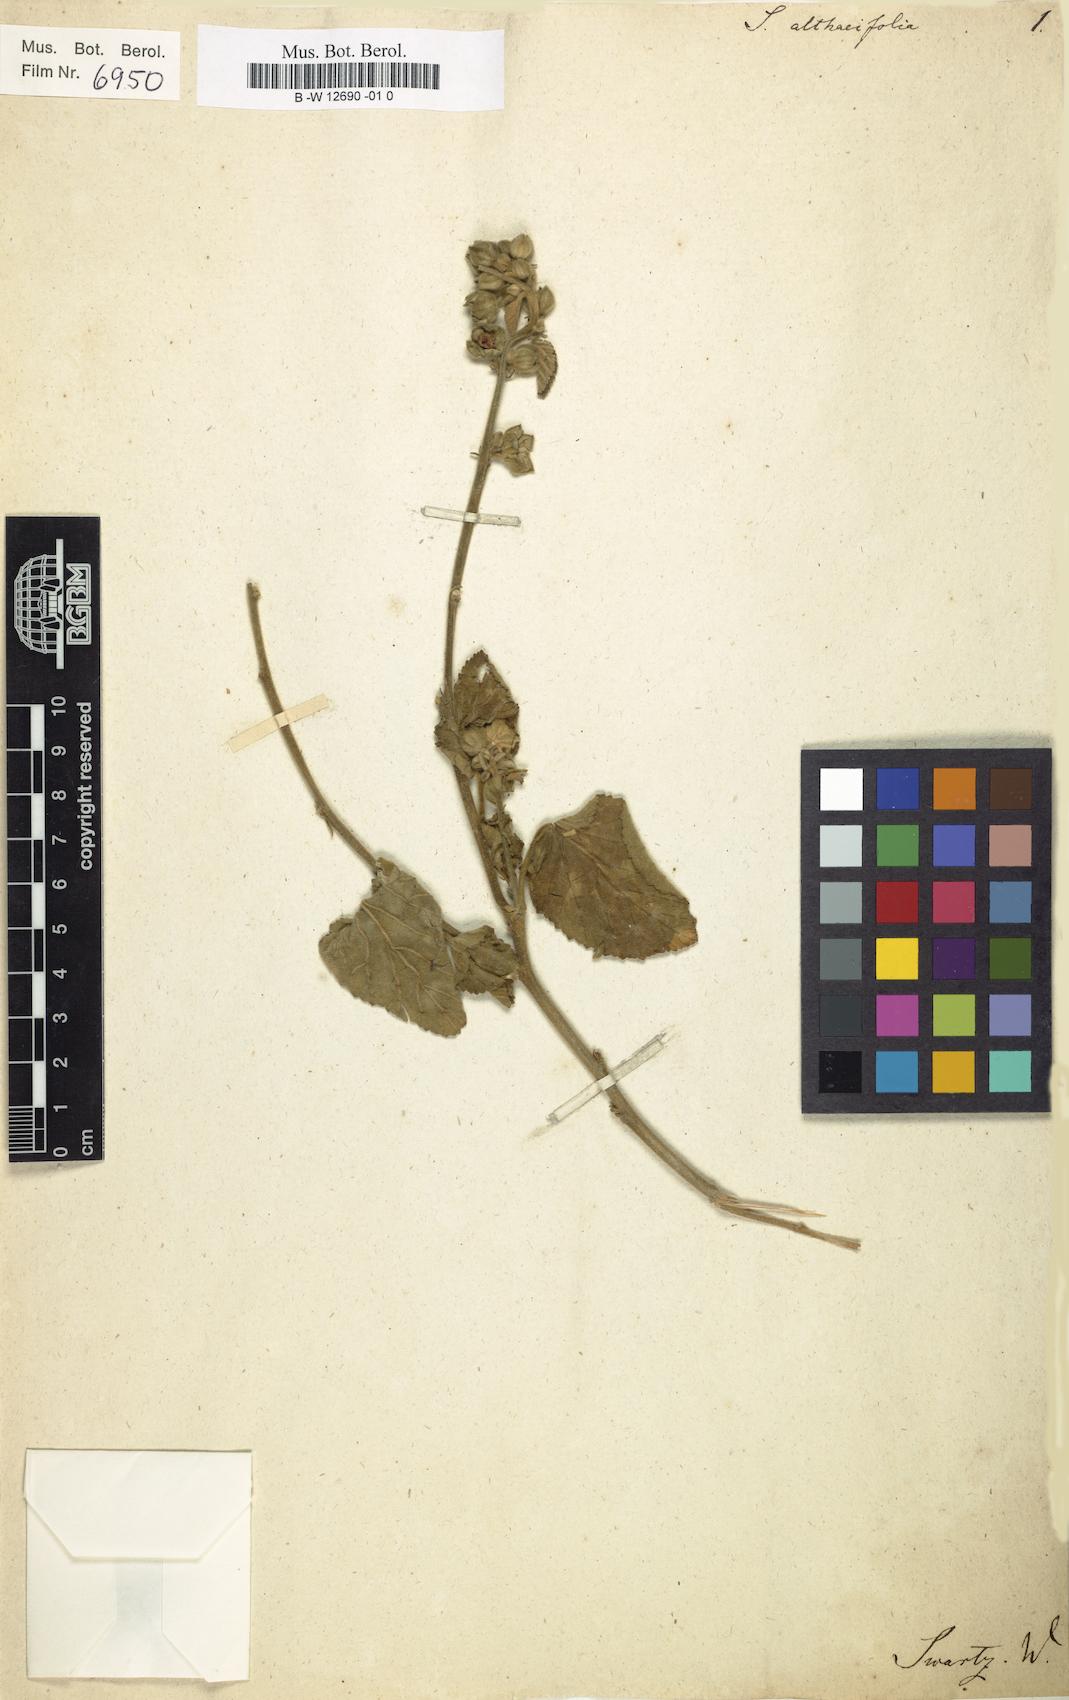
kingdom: Plantae
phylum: Tracheophyta
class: Magnoliopsida
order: Malvales
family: Malvaceae
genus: Sida
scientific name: Sida cordifolia
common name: Ilima
